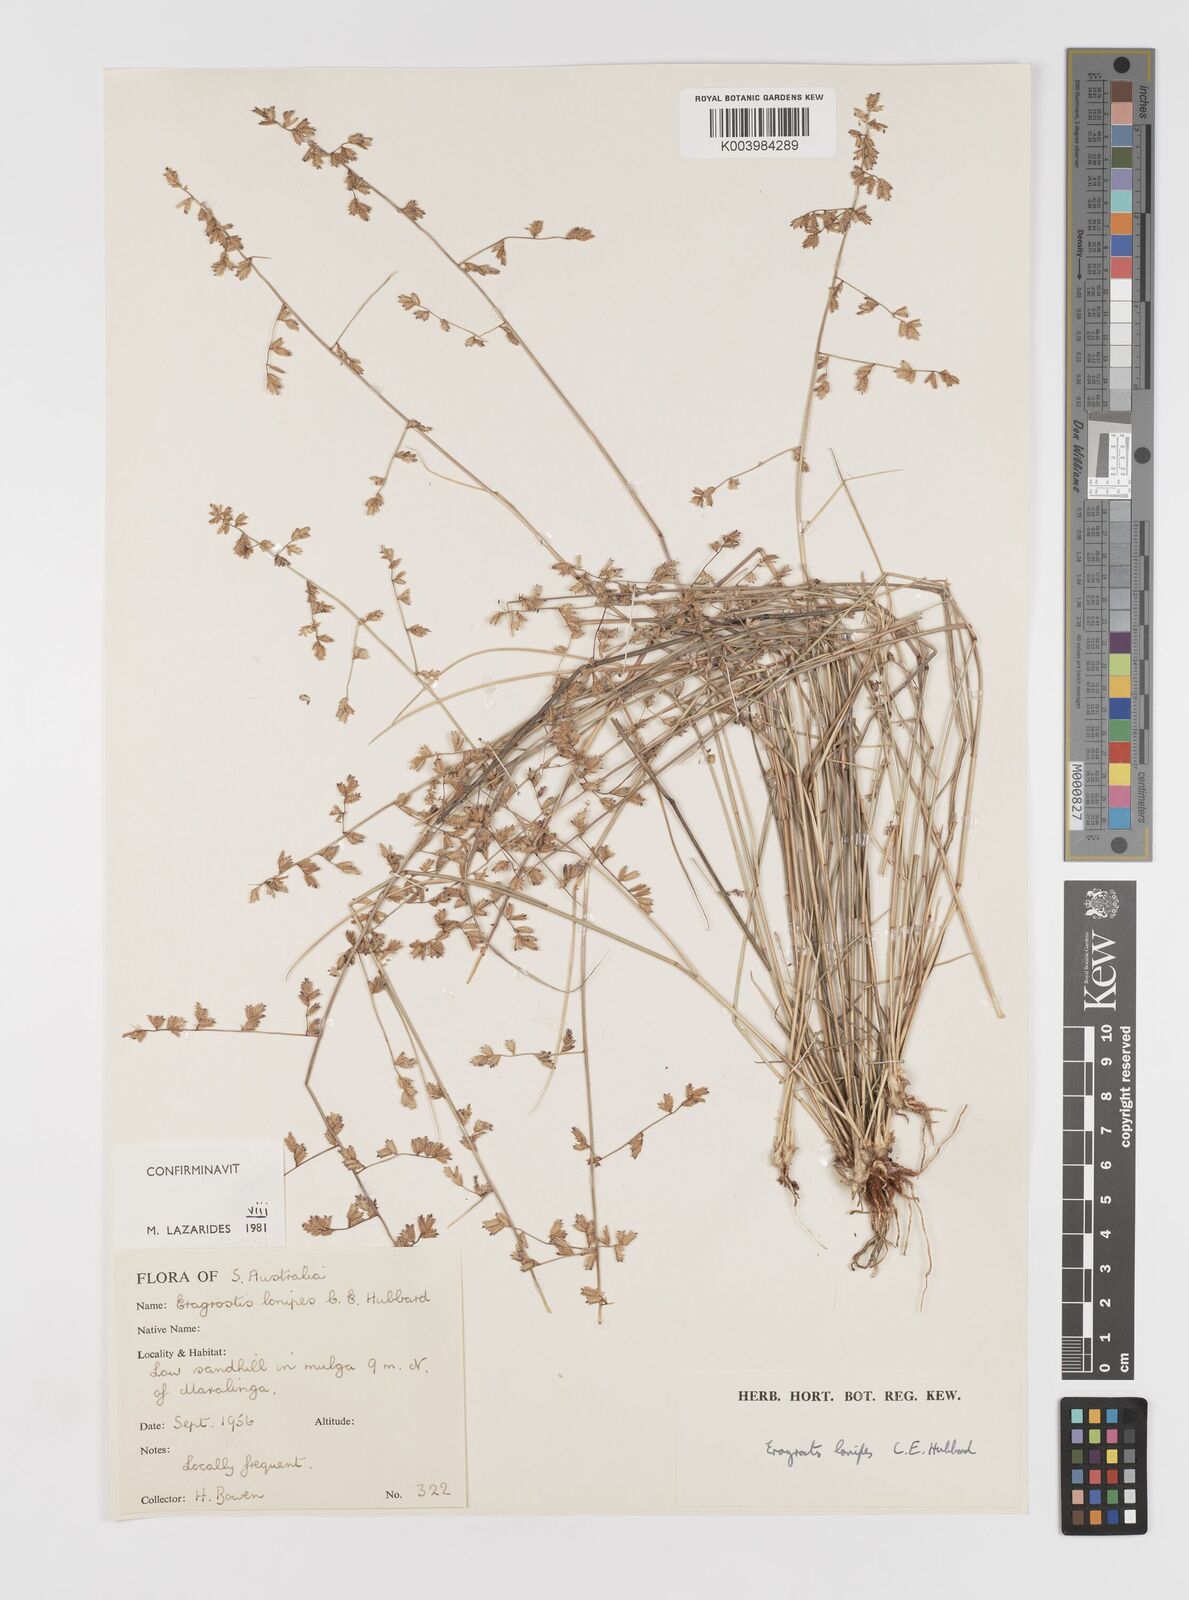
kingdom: Plantae
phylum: Tracheophyta
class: Liliopsida
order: Poales
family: Poaceae
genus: Eragrostis
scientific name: Eragrostis lanipes
